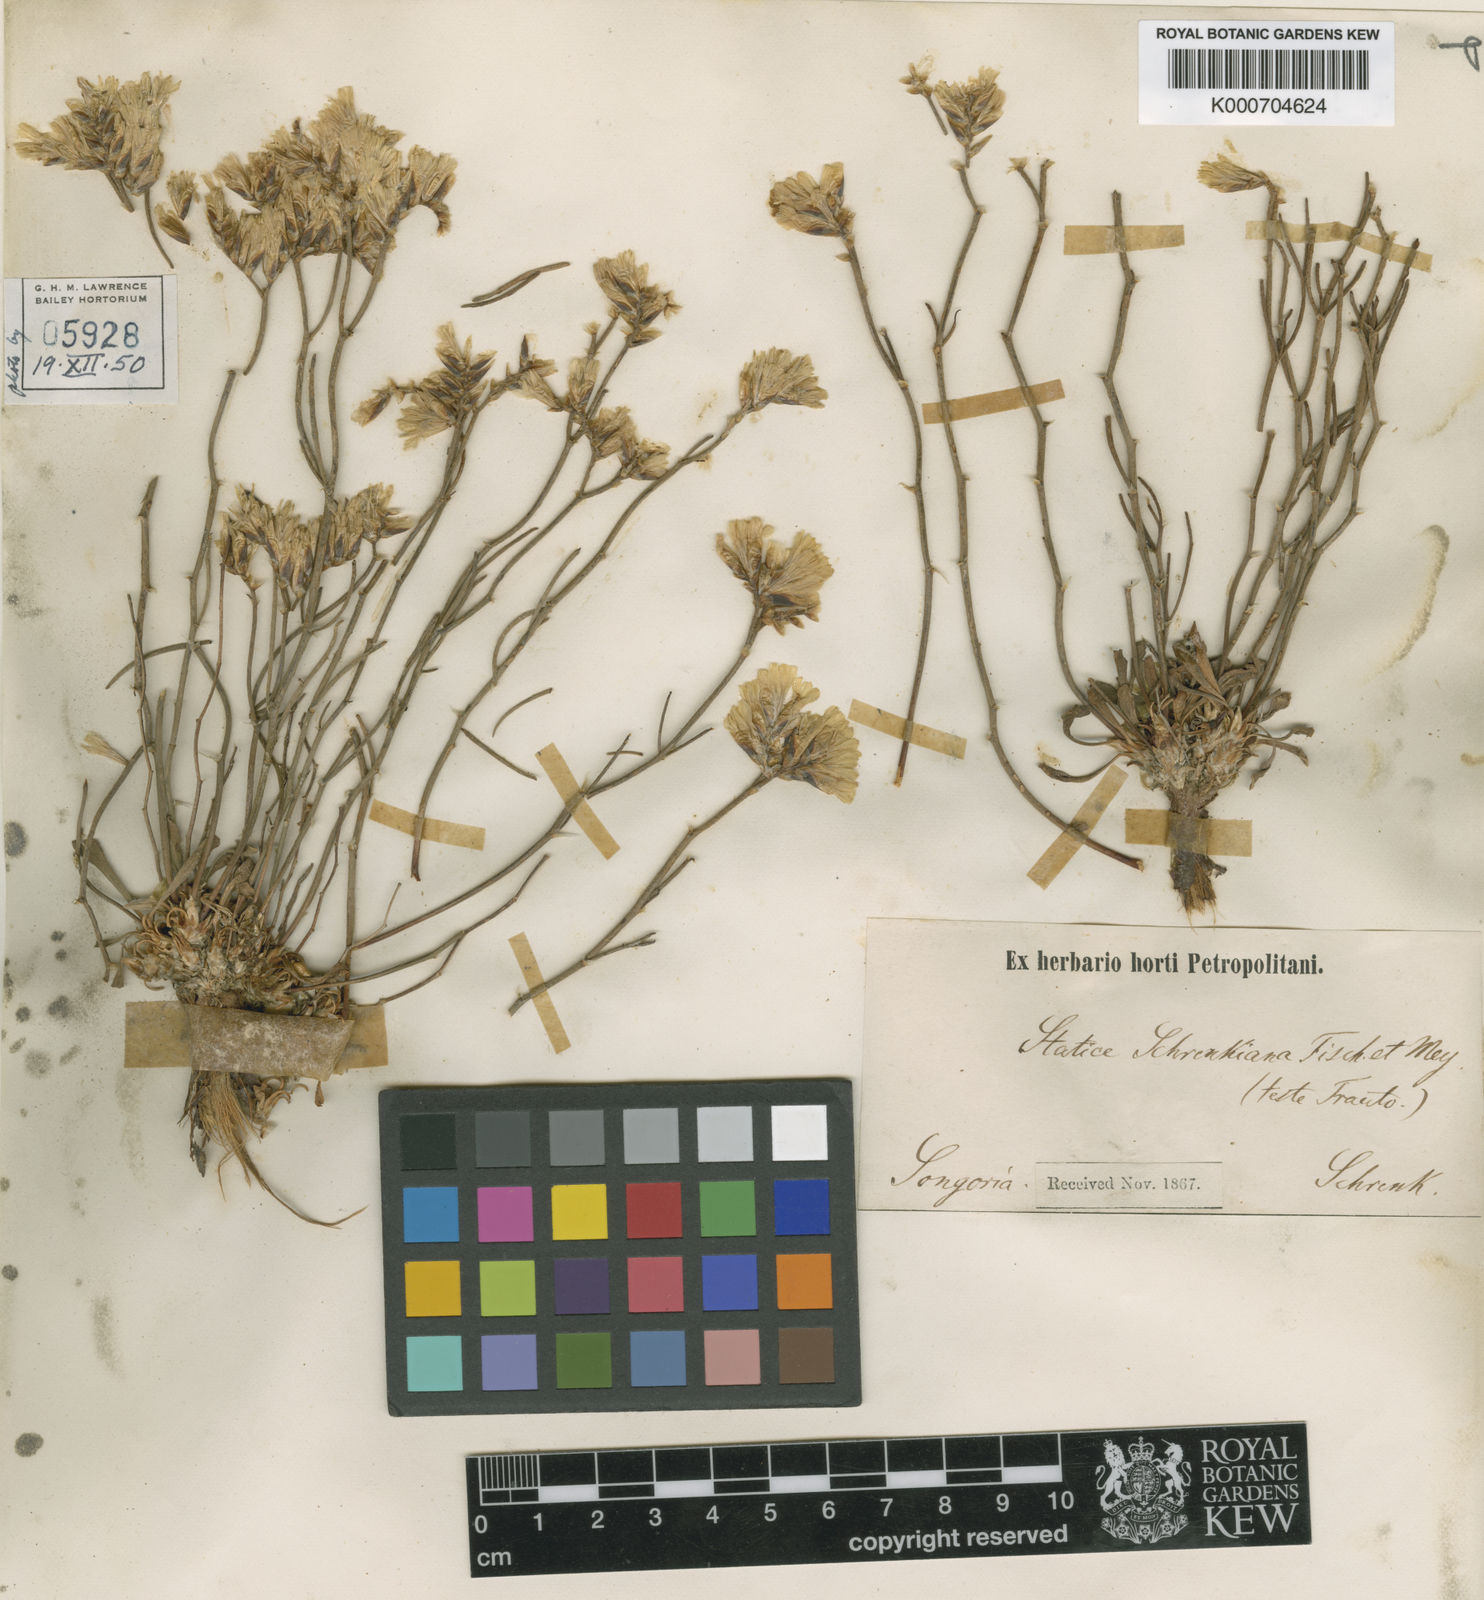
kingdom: Plantae
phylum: Tracheophyta
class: Magnoliopsida
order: Caryophyllales
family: Plumbaginaceae
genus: Limonium
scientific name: Limonium chrysocomum
